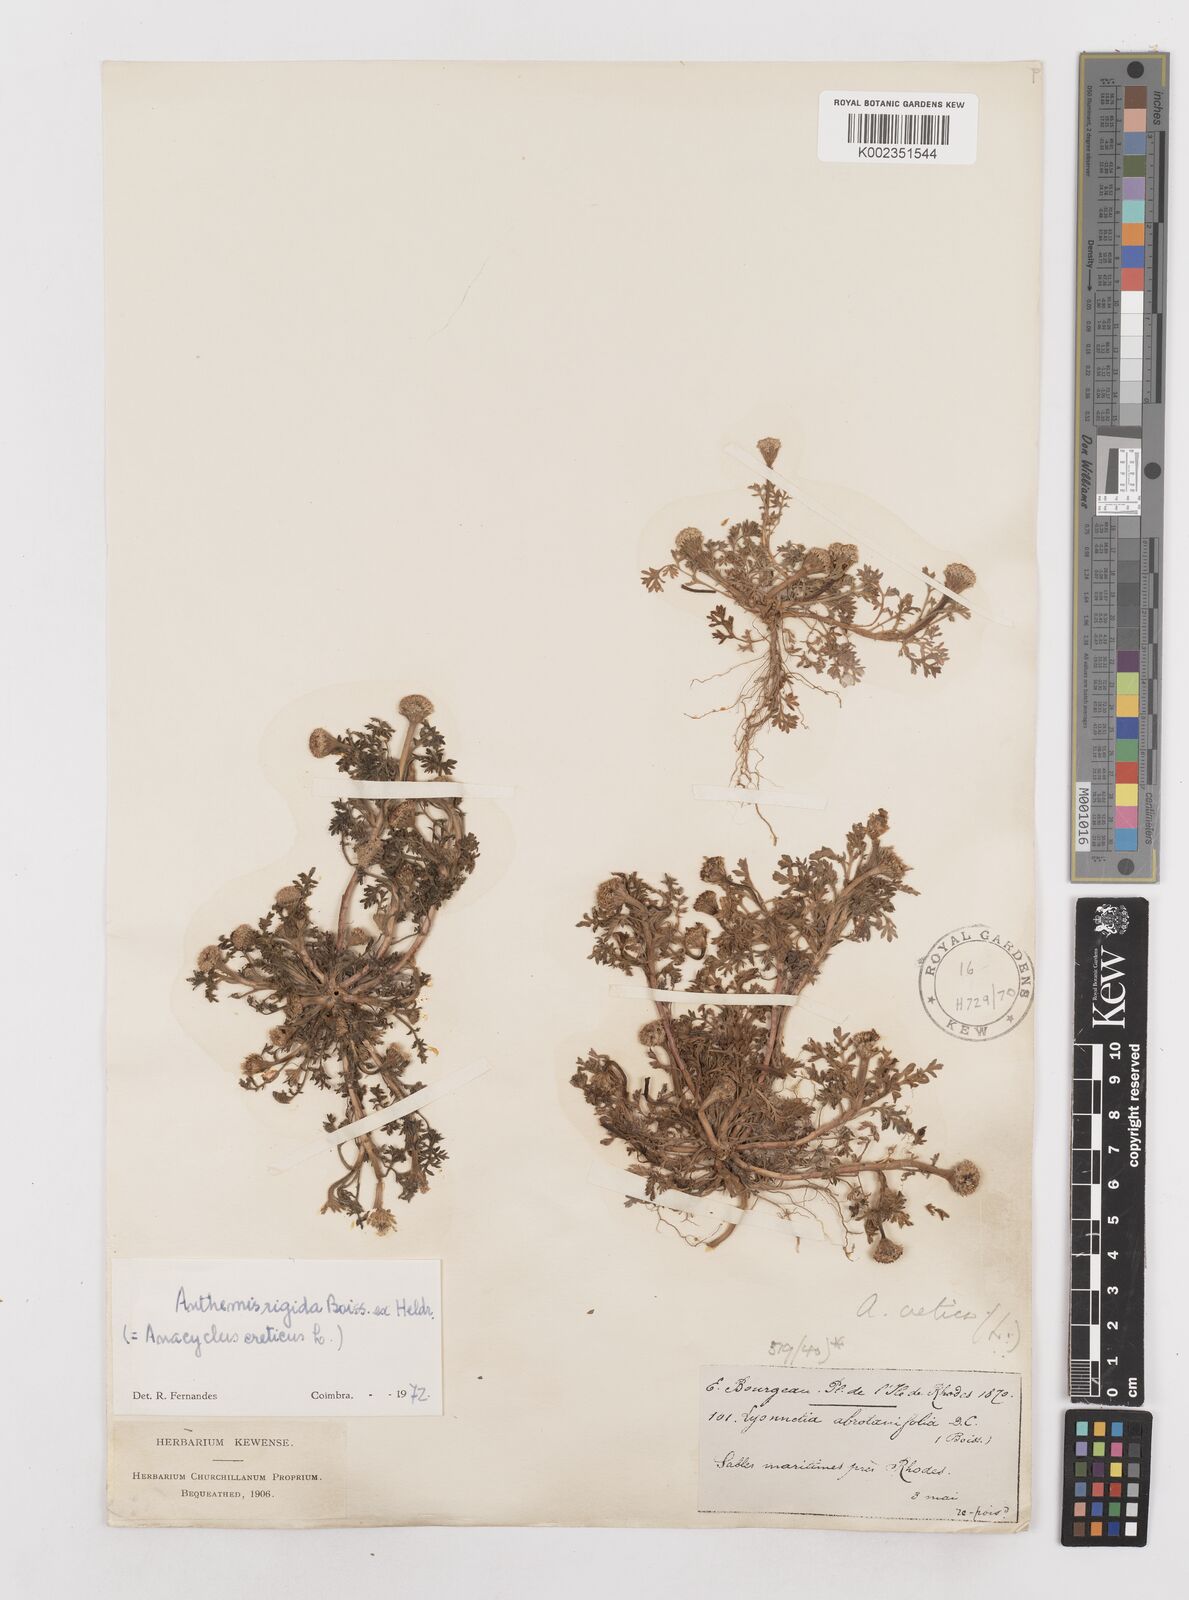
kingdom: Plantae
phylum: Tracheophyta
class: Magnoliopsida
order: Asterales
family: Asteraceae
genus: Anthemis
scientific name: Anthemis rigida
